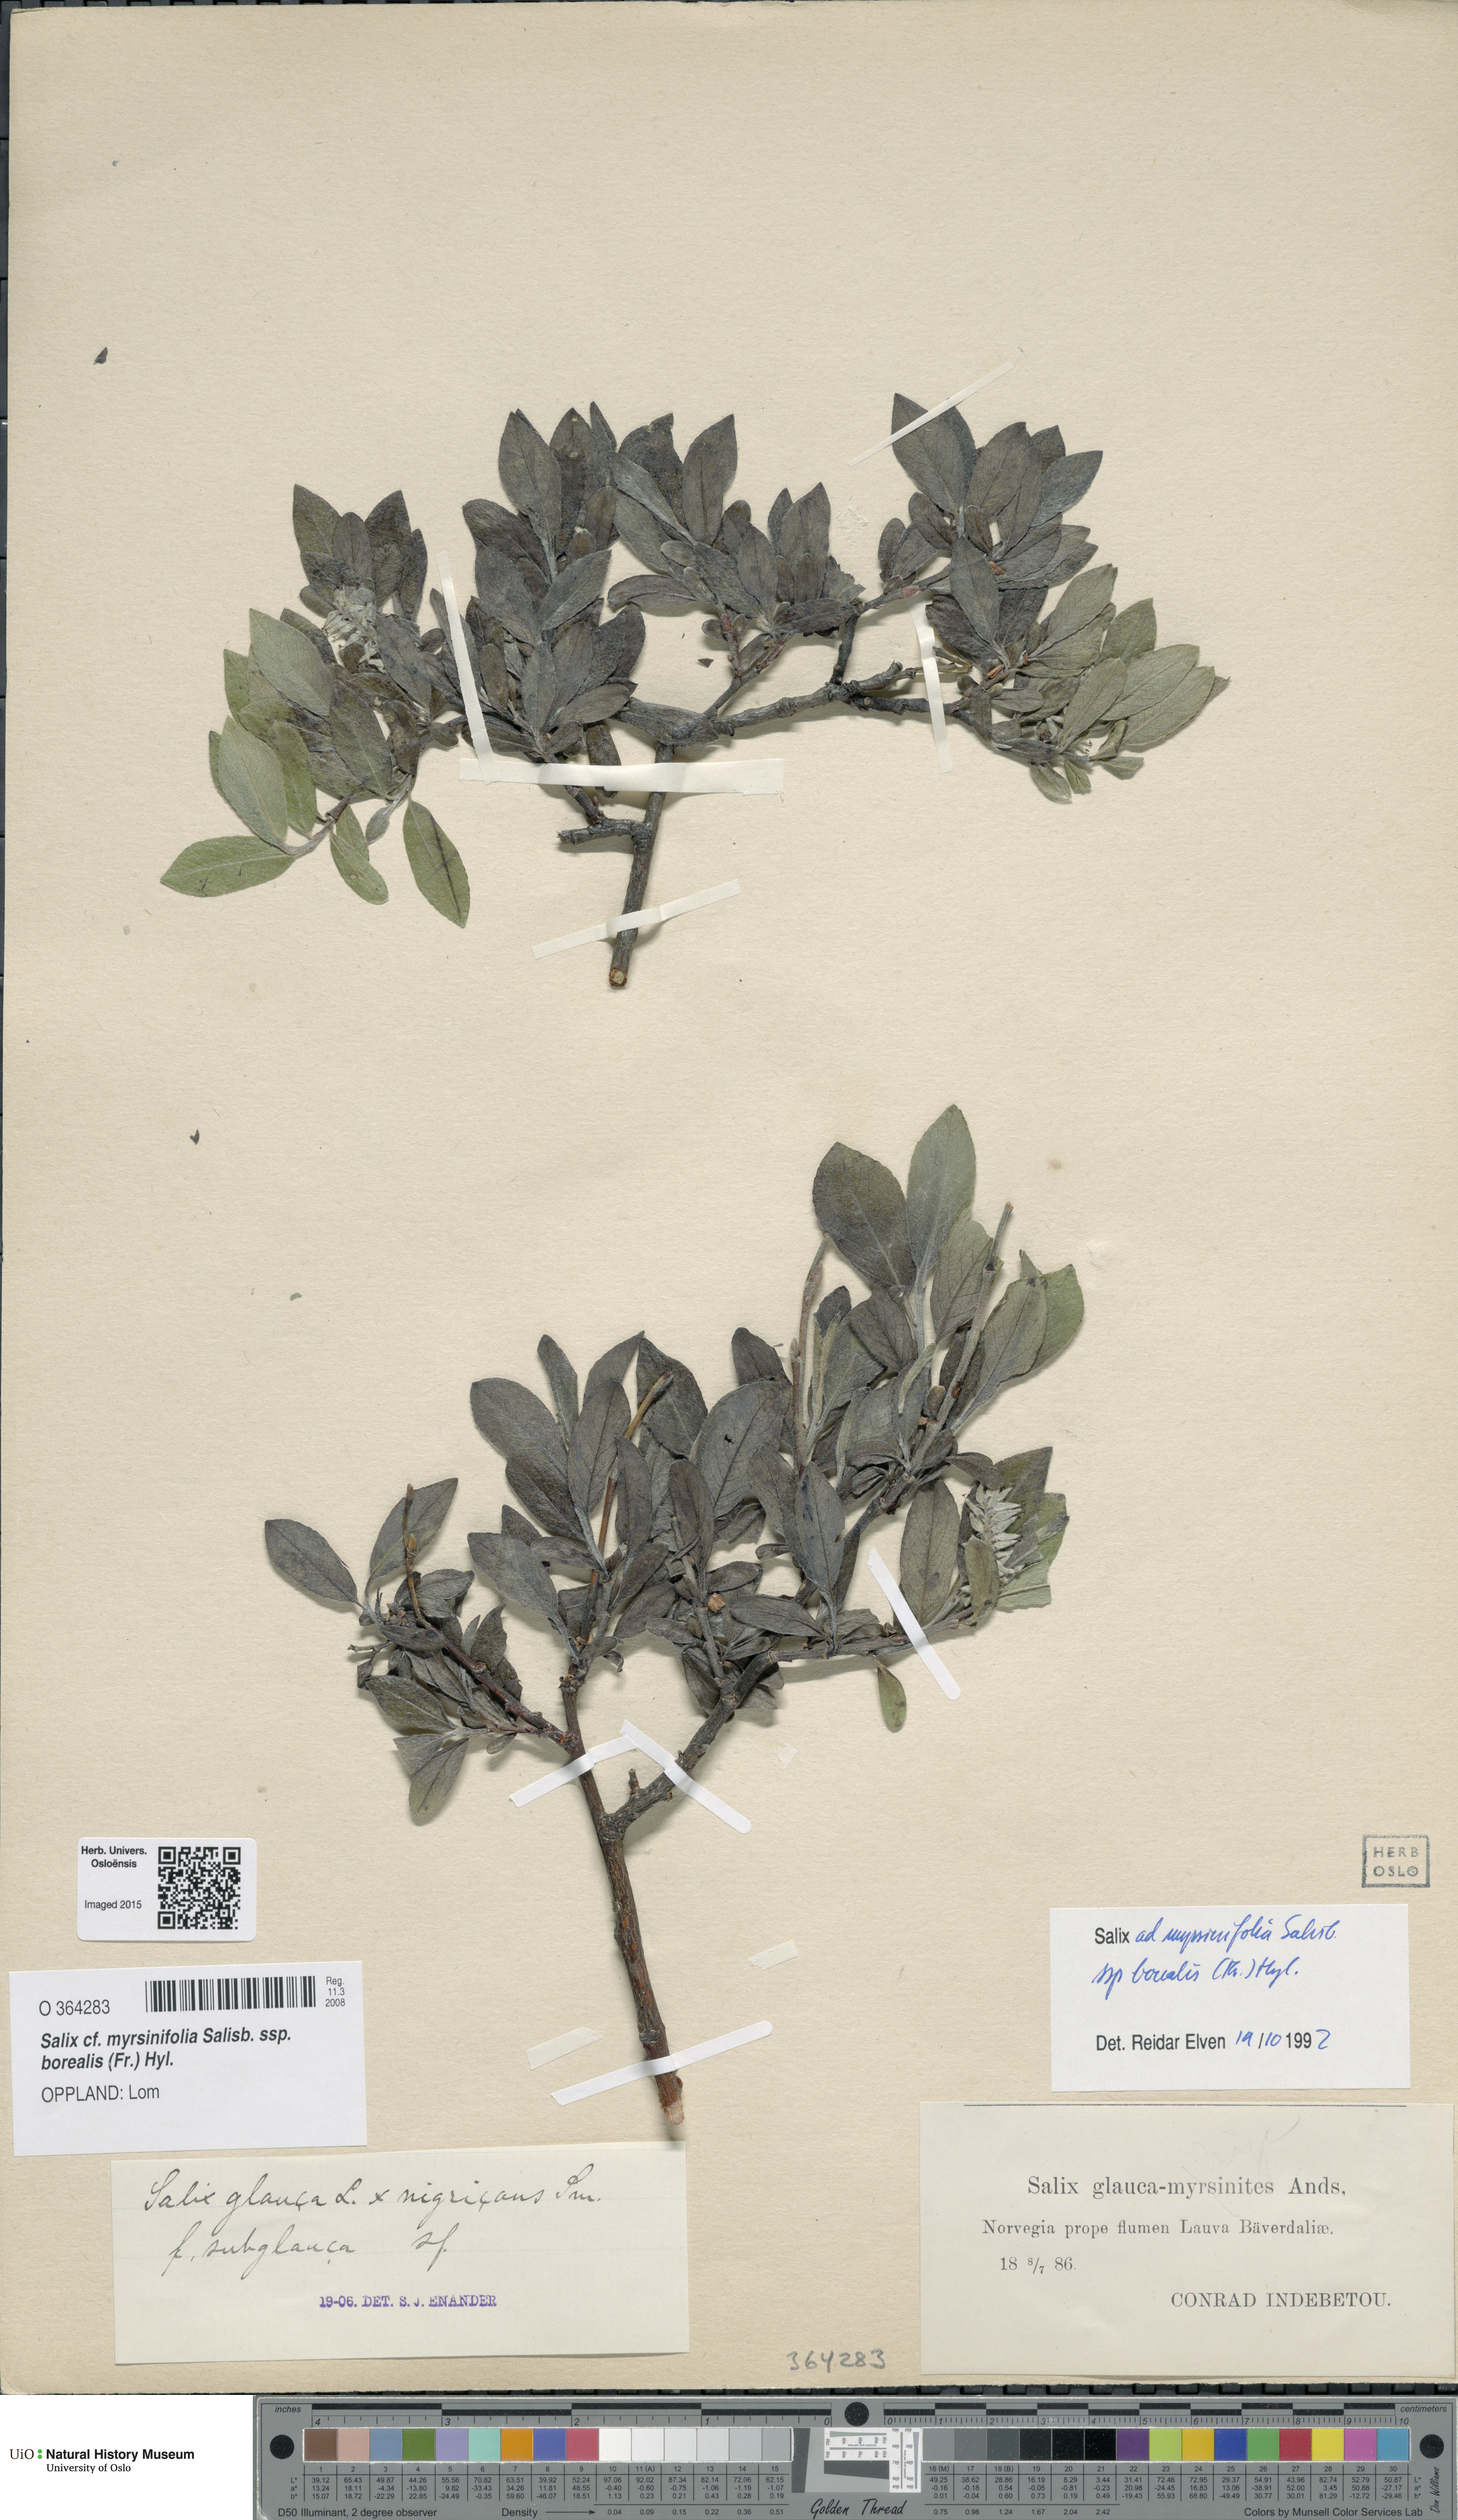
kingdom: Plantae
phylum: Tracheophyta
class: Magnoliopsida
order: Malpighiales
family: Salicaceae
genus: Salix
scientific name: Salix myrsinifolia
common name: Dark-leaved willow
